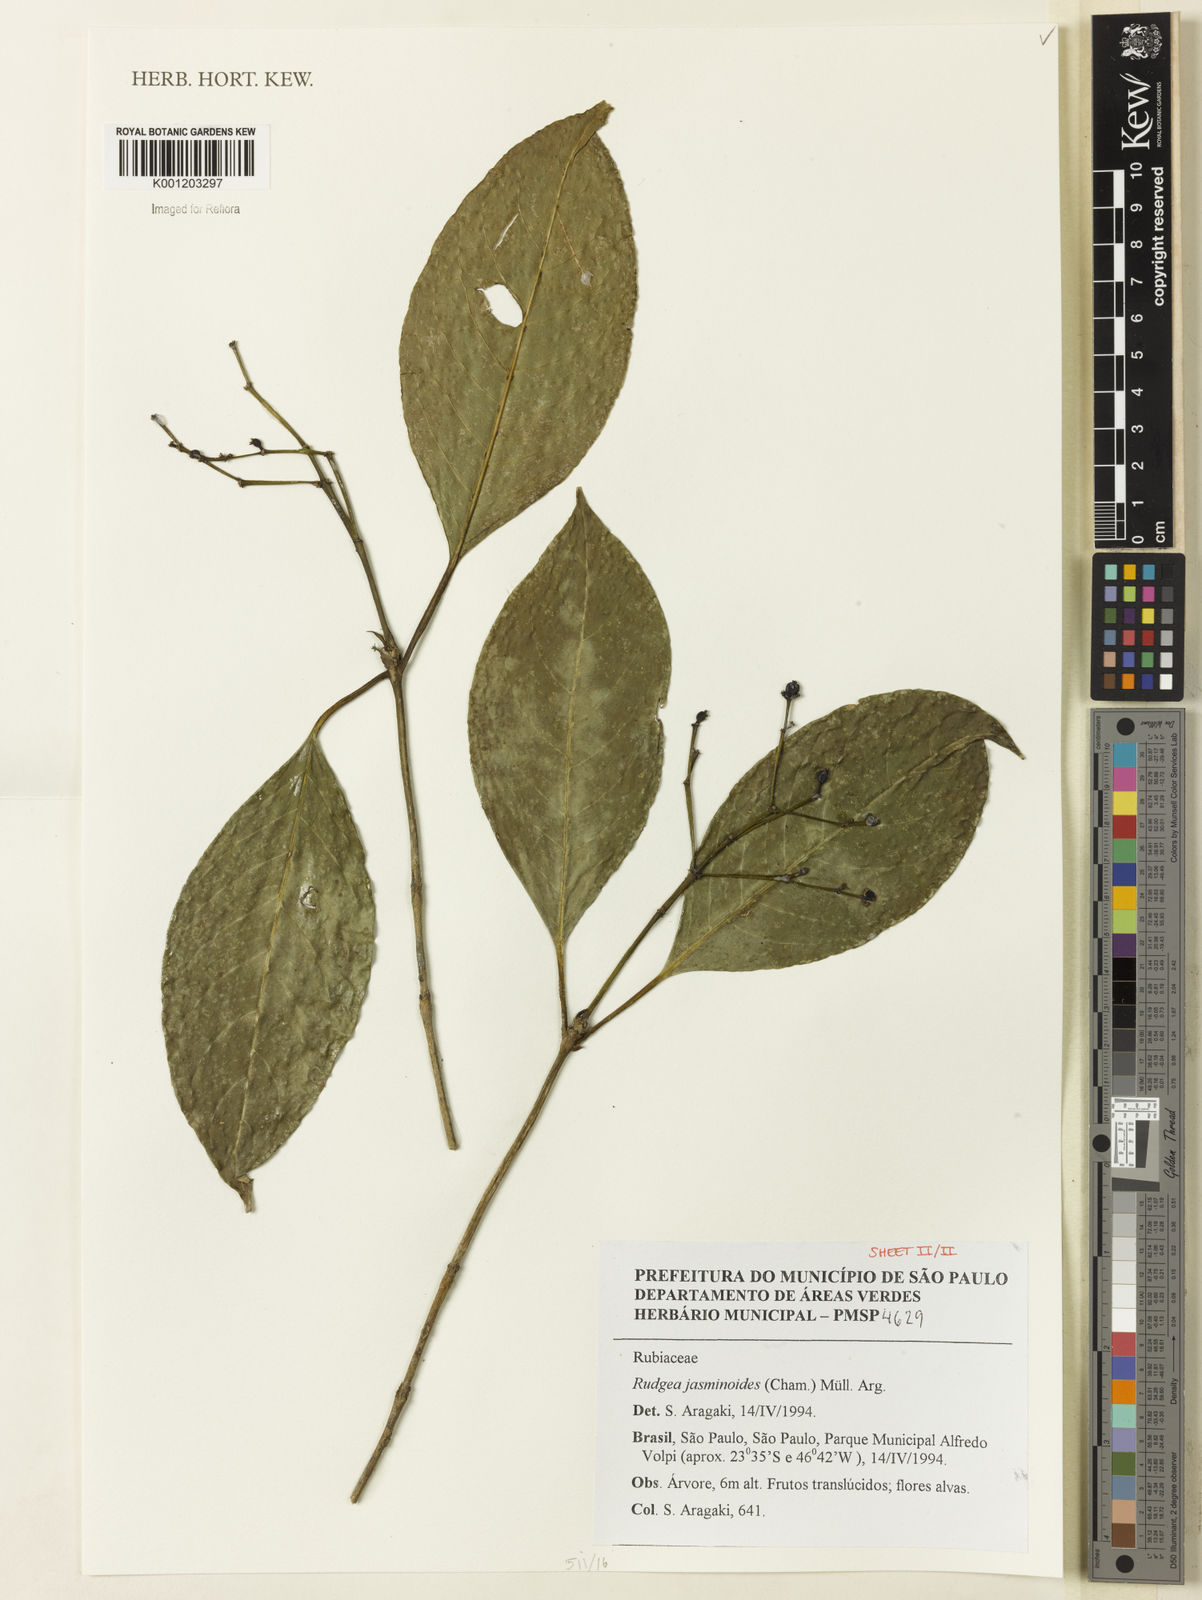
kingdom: Plantae
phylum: Tracheophyta
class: Magnoliopsida
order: Gentianales
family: Rubiaceae
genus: Rudgea
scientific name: Rudgea
